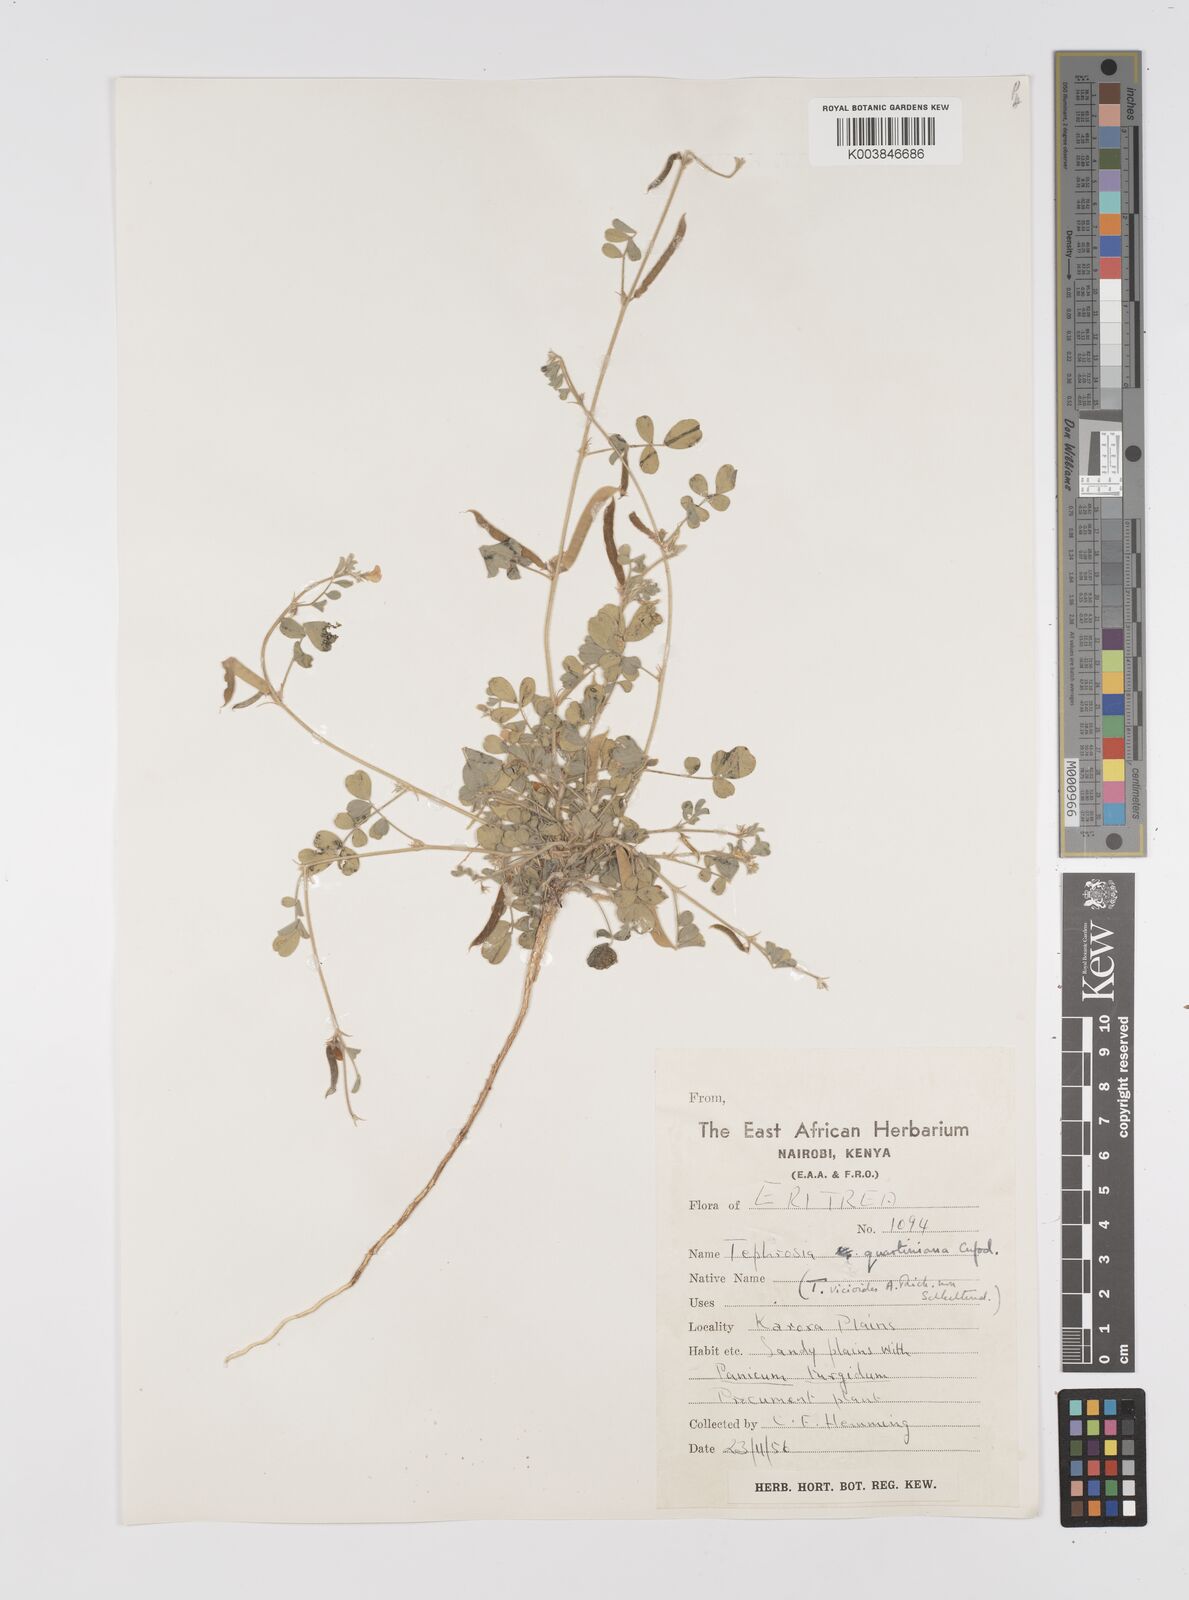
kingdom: Plantae
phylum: Tracheophyta
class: Magnoliopsida
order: Fabales
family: Fabaceae
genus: Tephrosia
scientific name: Tephrosia uniflora
